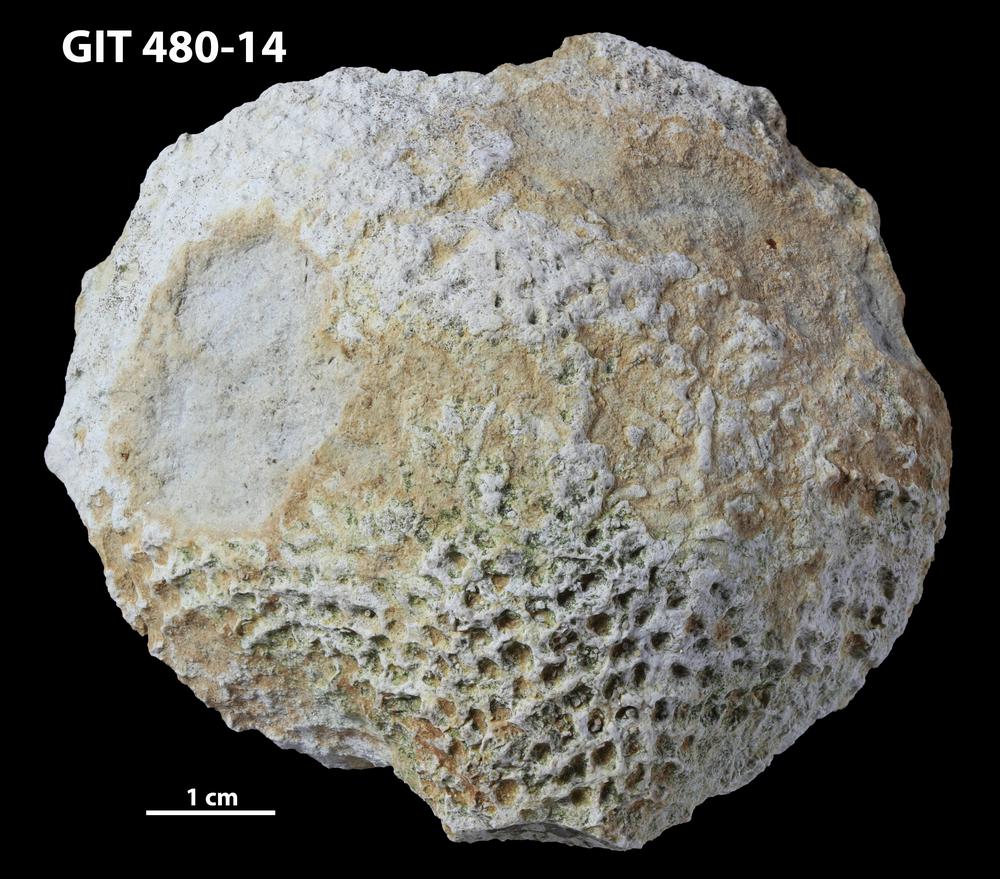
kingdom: Animalia
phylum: Porifera
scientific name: Porifera
